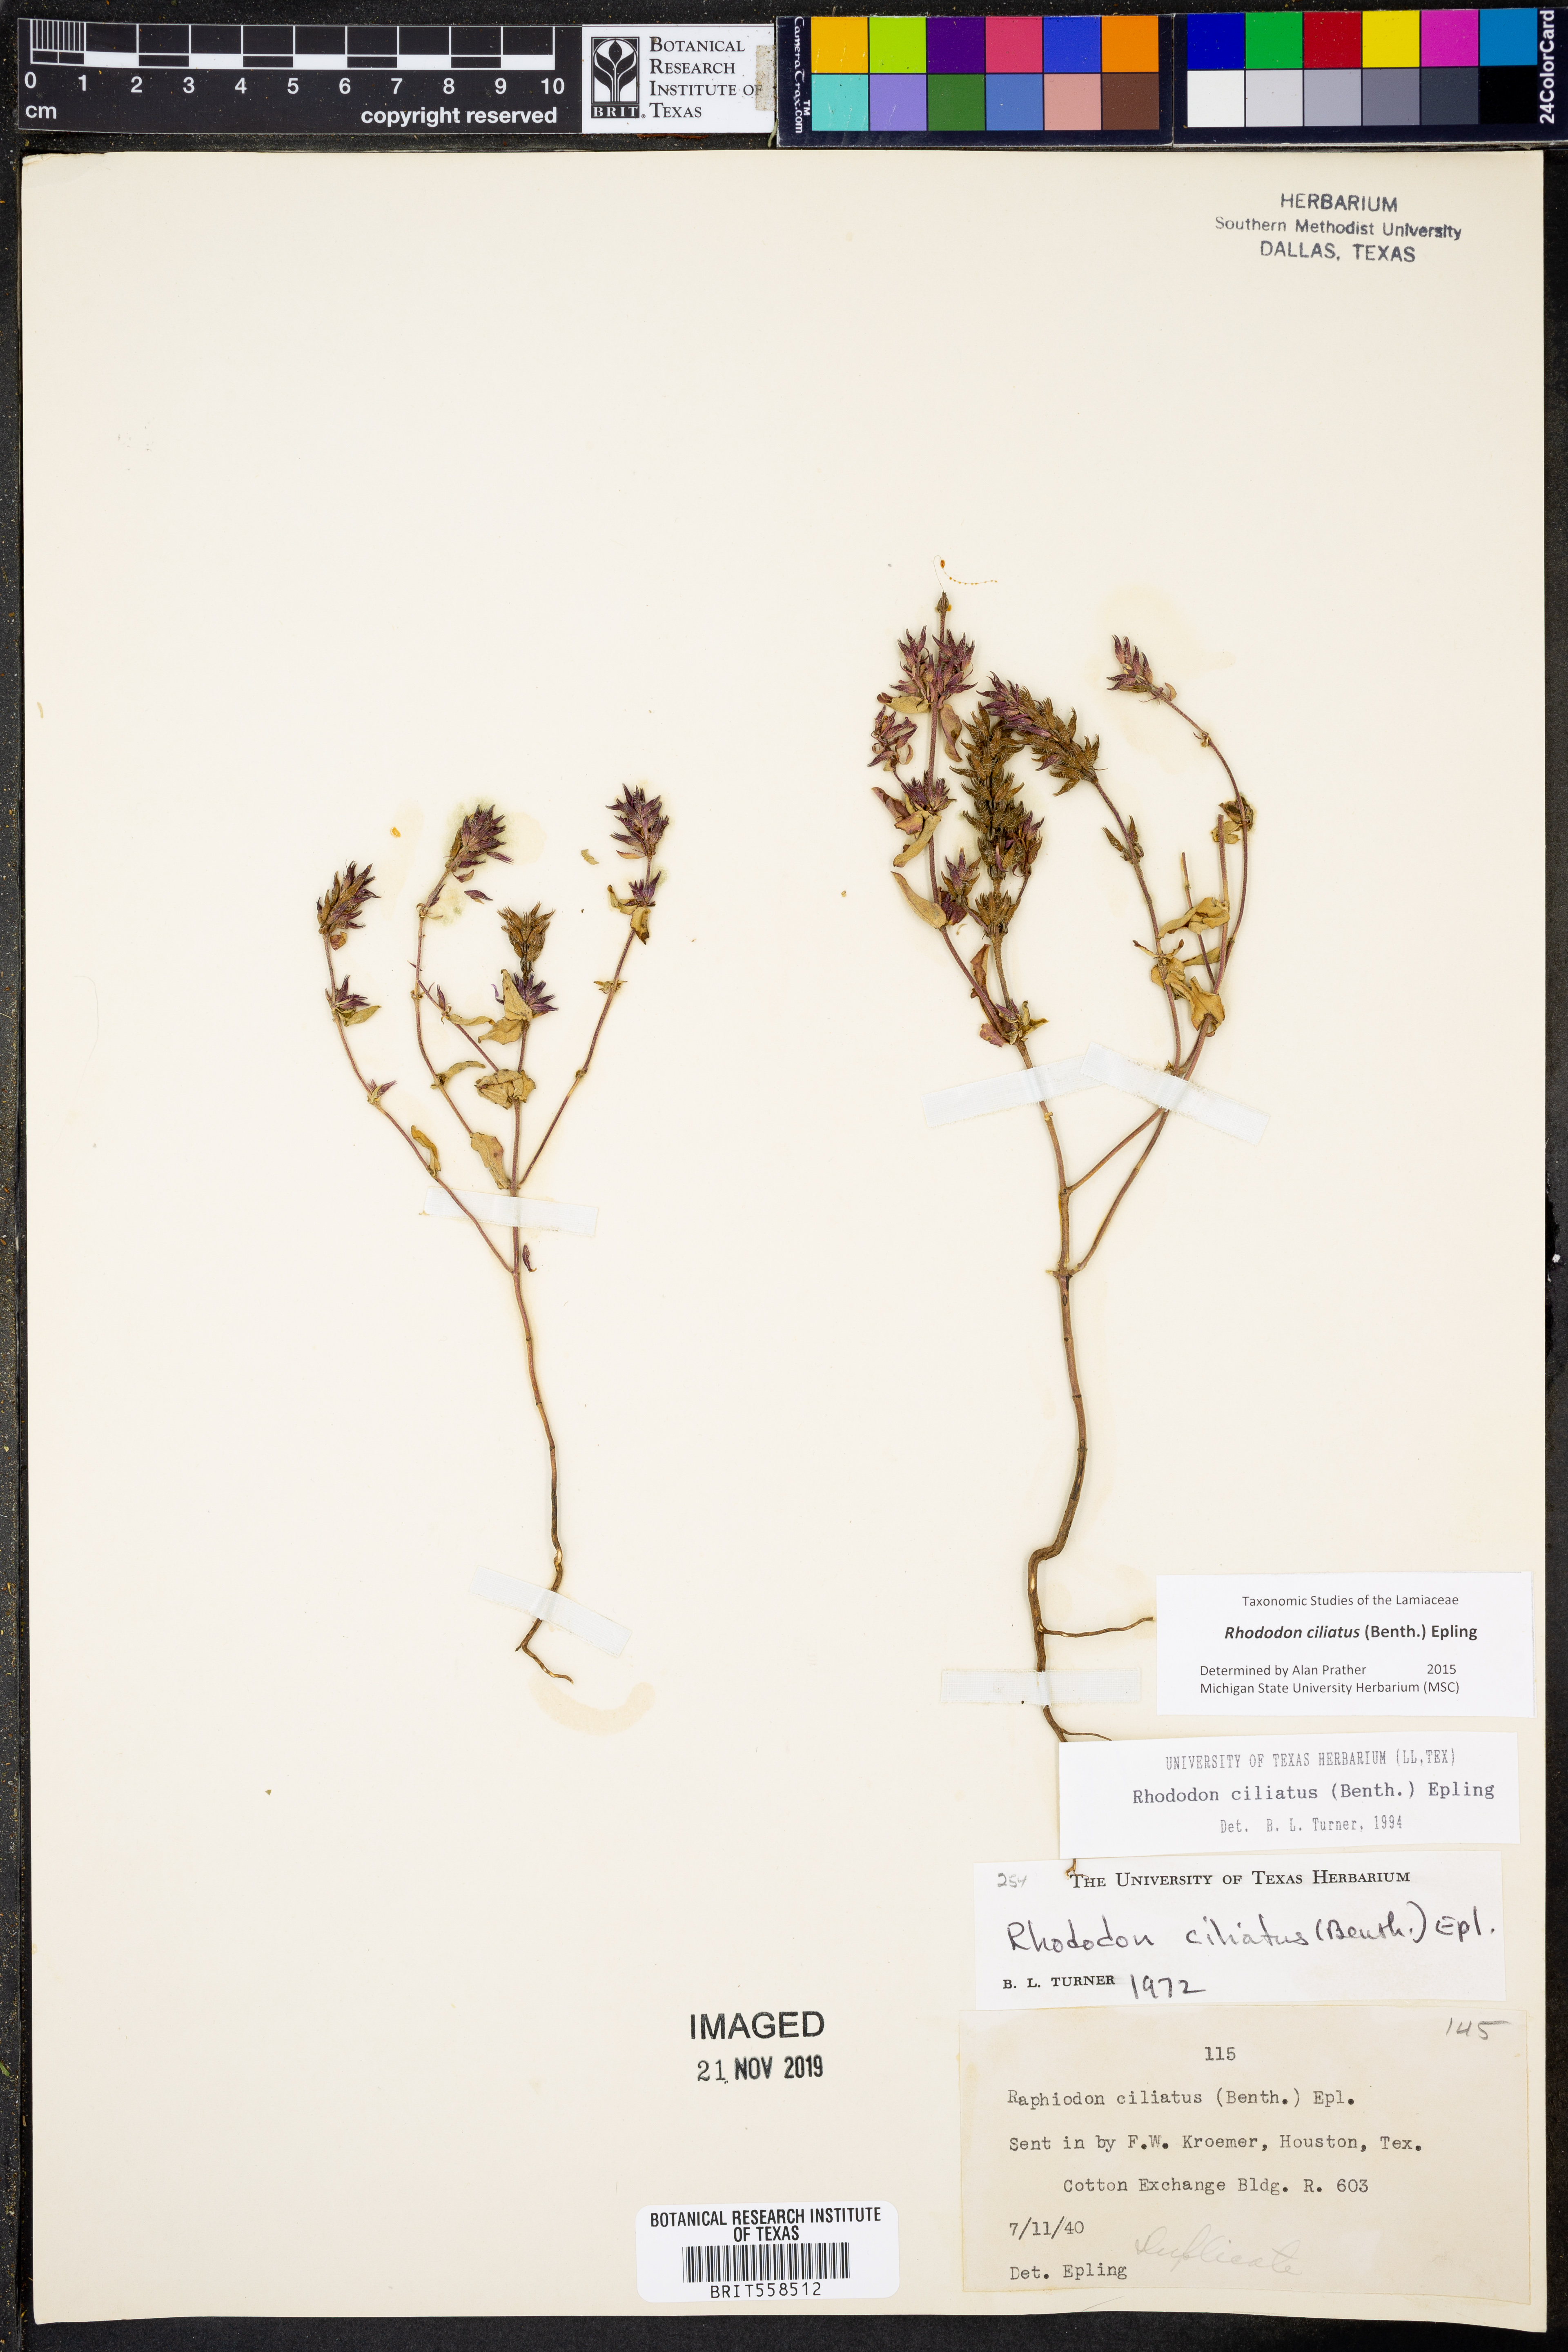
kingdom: Plantae
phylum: Tracheophyta
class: Magnoliopsida
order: Lamiales
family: Lamiaceae
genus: Rhododon
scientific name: Rhododon ciliatus
